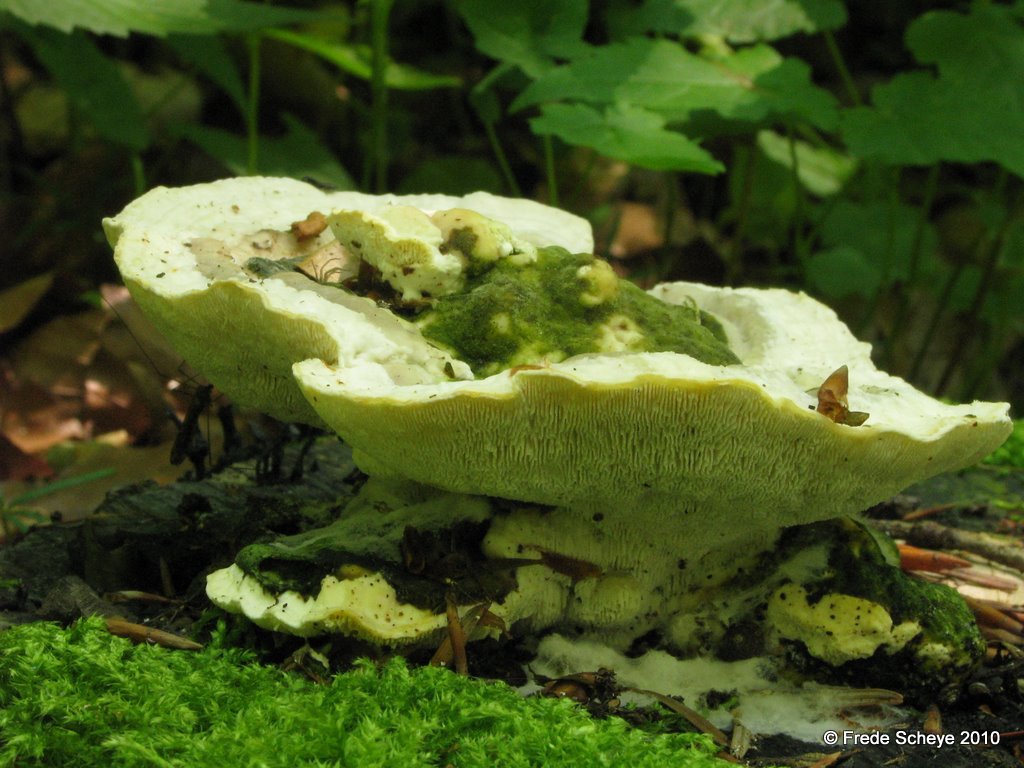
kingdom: Fungi
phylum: Basidiomycota
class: Agaricomycetes
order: Polyporales
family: Polyporaceae
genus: Trametes
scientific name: Trametes gibbosa
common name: puklet læderporesvamp
